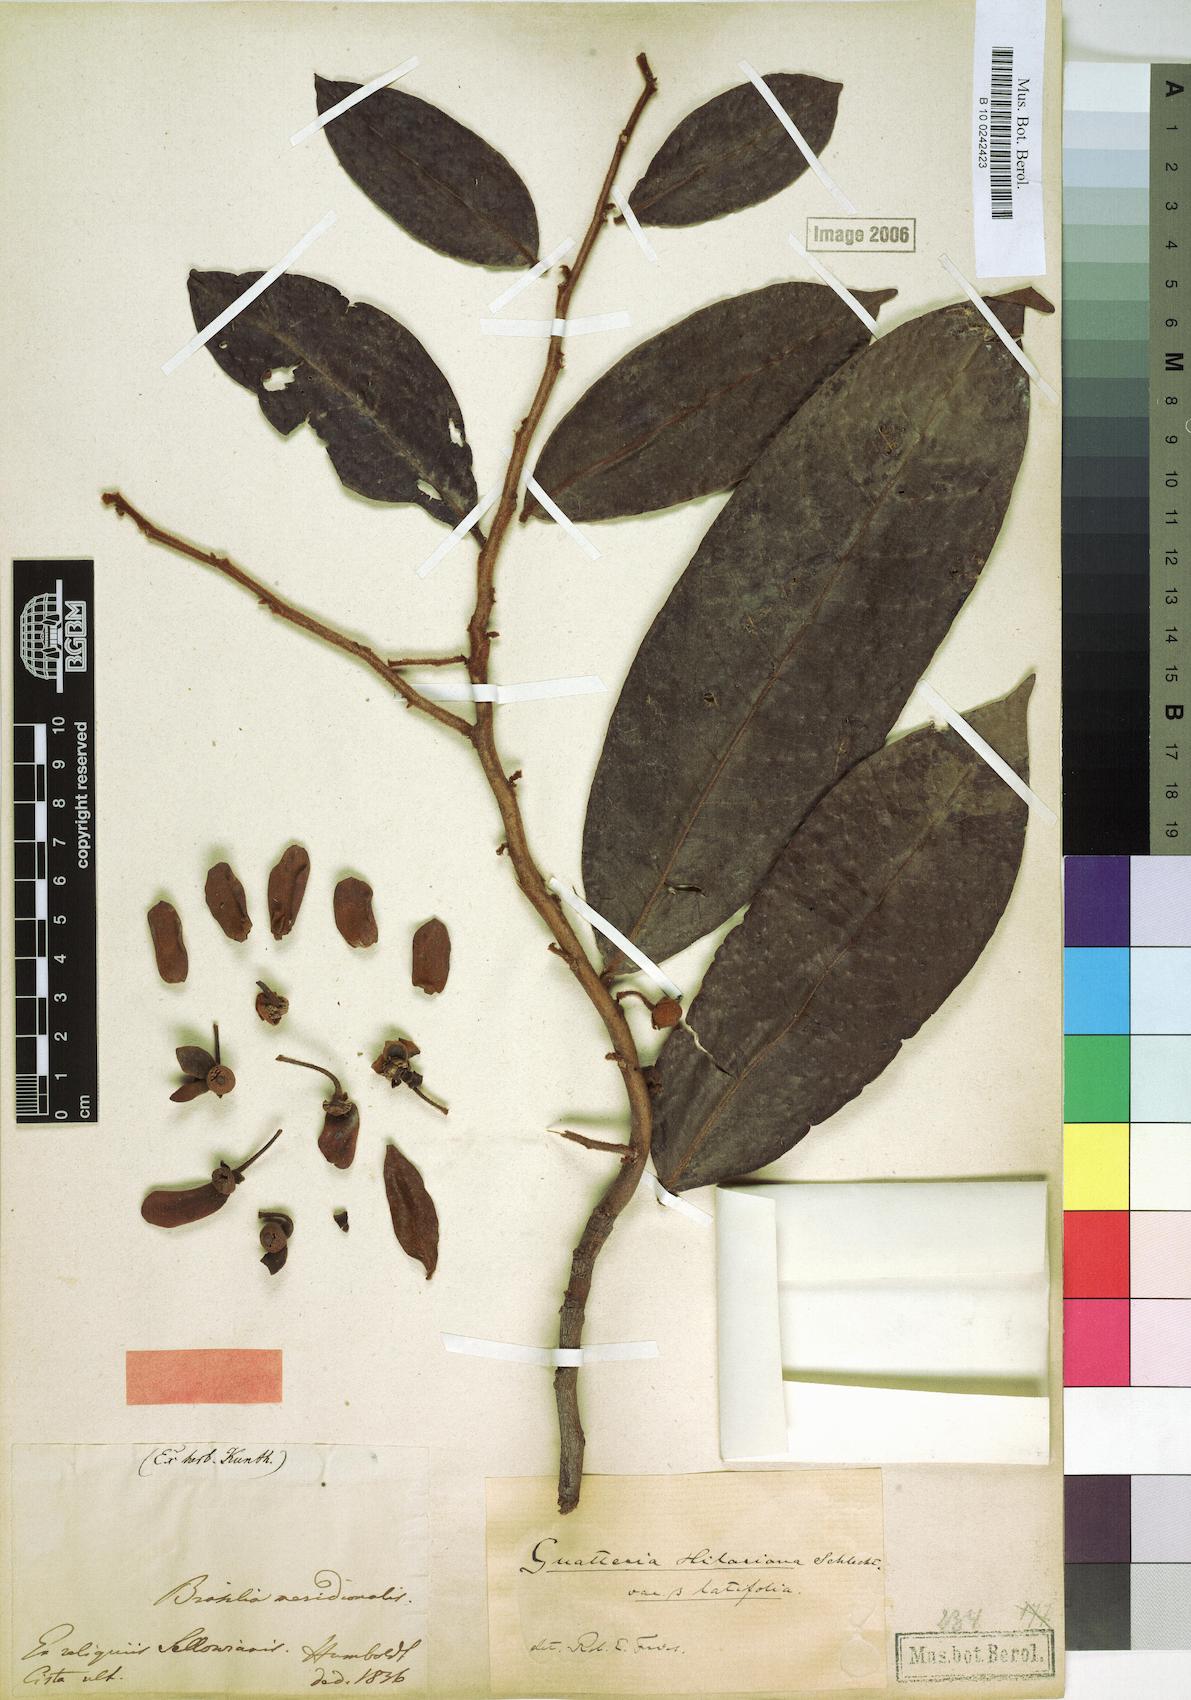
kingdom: Plantae
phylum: Tracheophyta
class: Magnoliopsida
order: Magnoliales
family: Annonaceae
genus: Guatteria
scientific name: Guatteria australis
